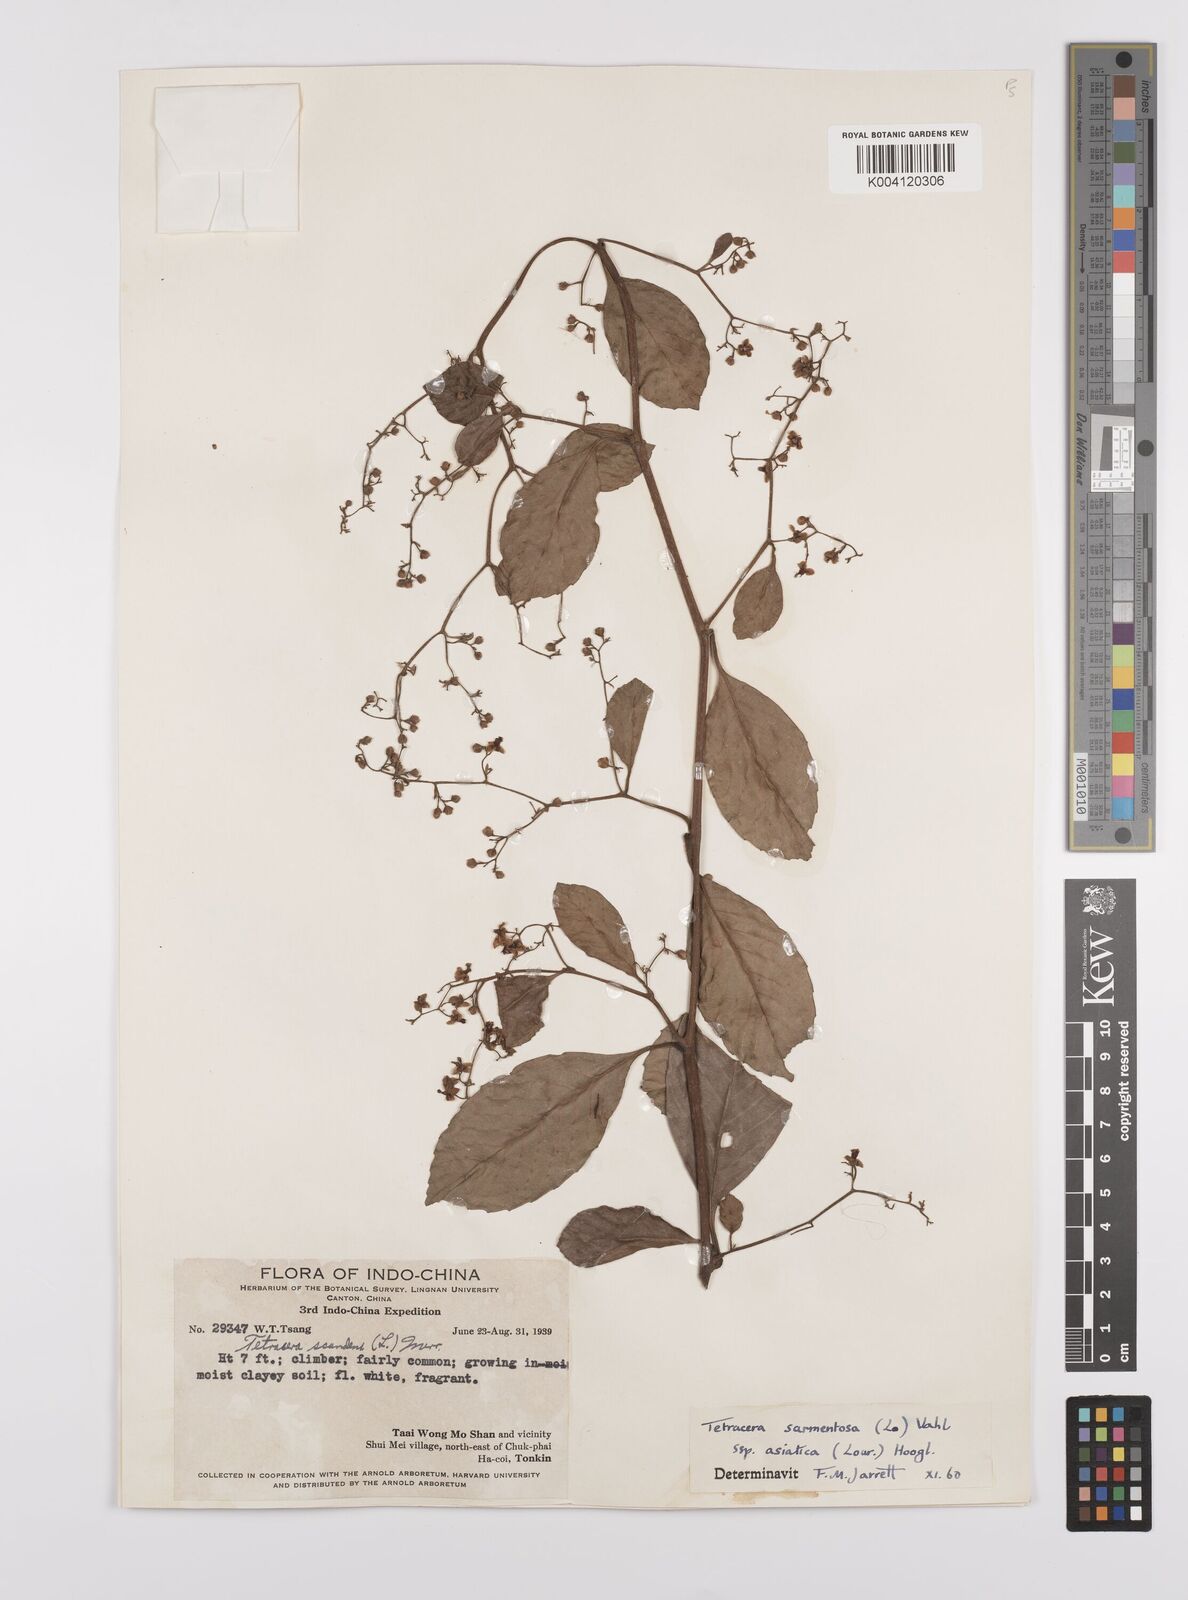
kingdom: Plantae
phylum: Tracheophyta
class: Magnoliopsida
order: Dilleniales
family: Dilleniaceae
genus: Tetracera
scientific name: Tetracera sarmentosa
